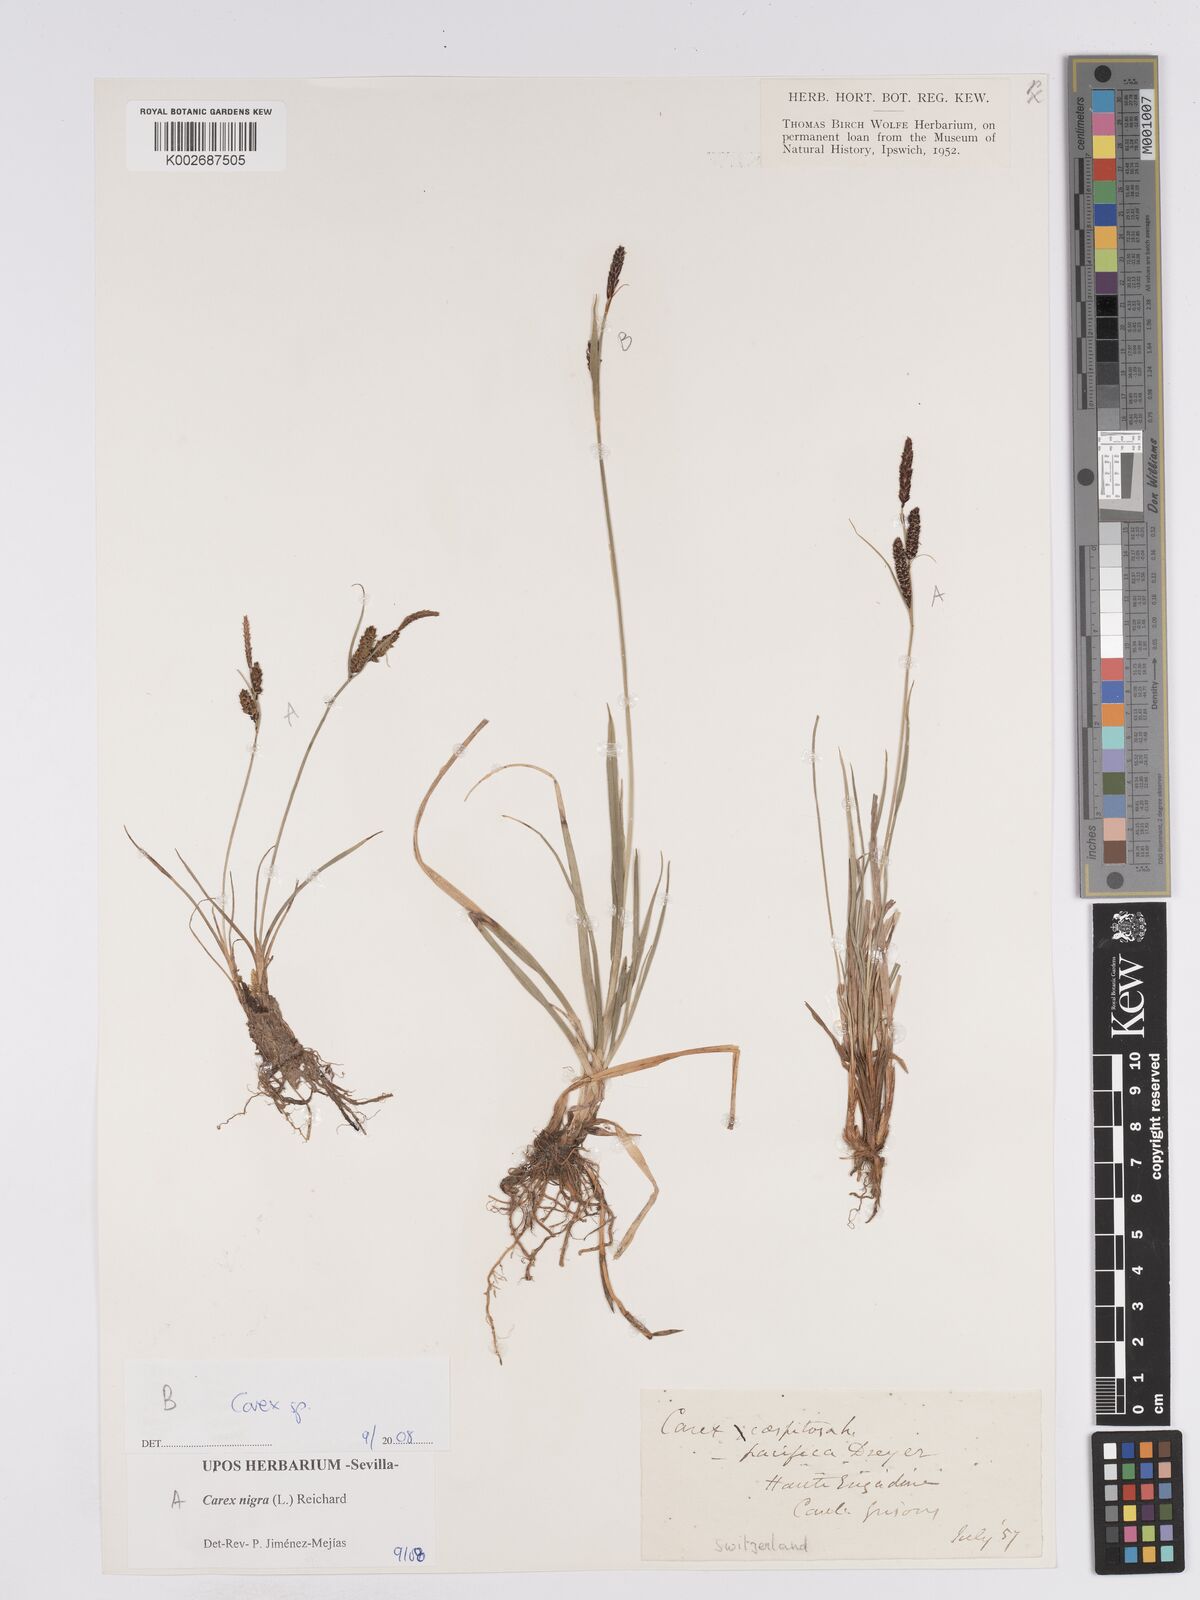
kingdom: Plantae
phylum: Tracheophyta
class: Liliopsida
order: Poales
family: Cyperaceae
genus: Carex
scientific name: Carex nigra
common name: Common sedge
